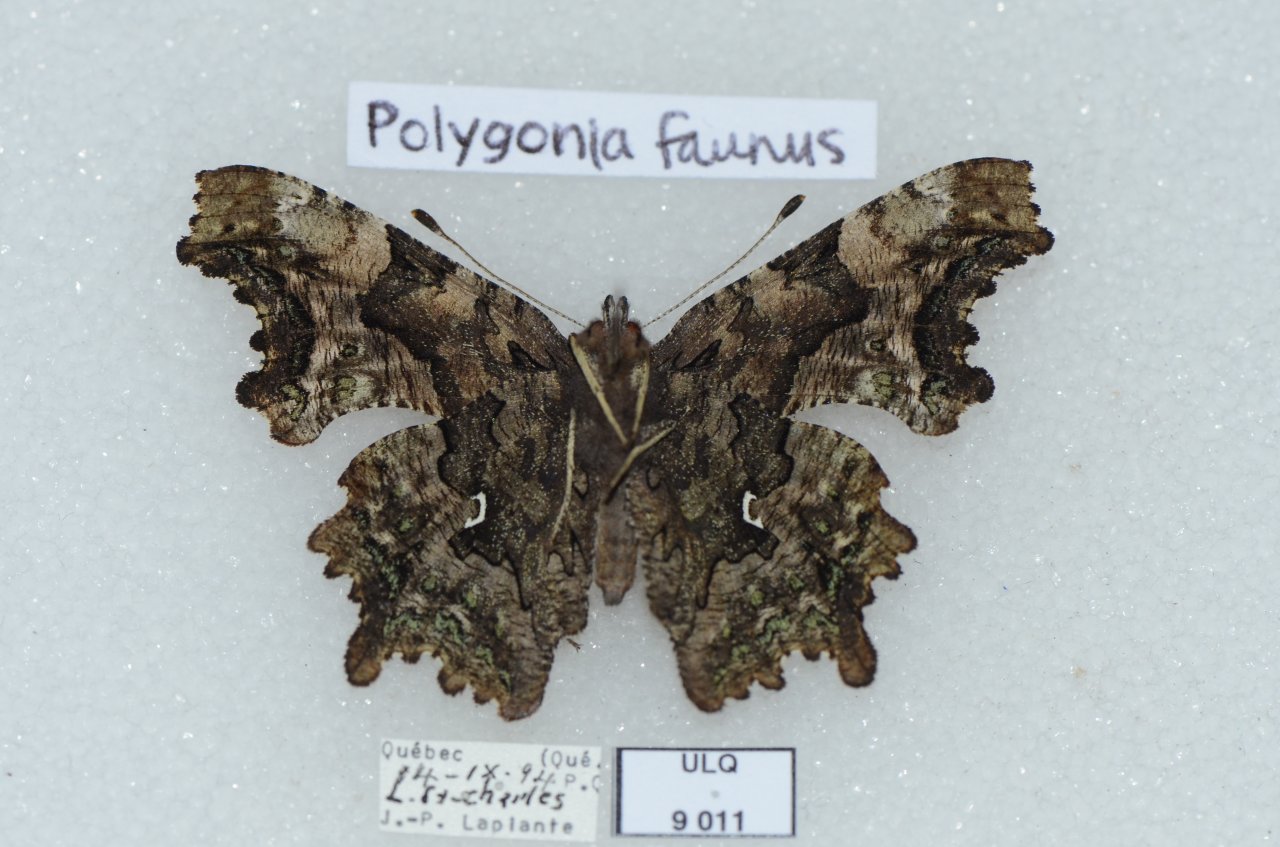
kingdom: Animalia
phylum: Arthropoda
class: Insecta
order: Lepidoptera
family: Nymphalidae
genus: Polygonia
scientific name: Polygonia faunus
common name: Green Comma
